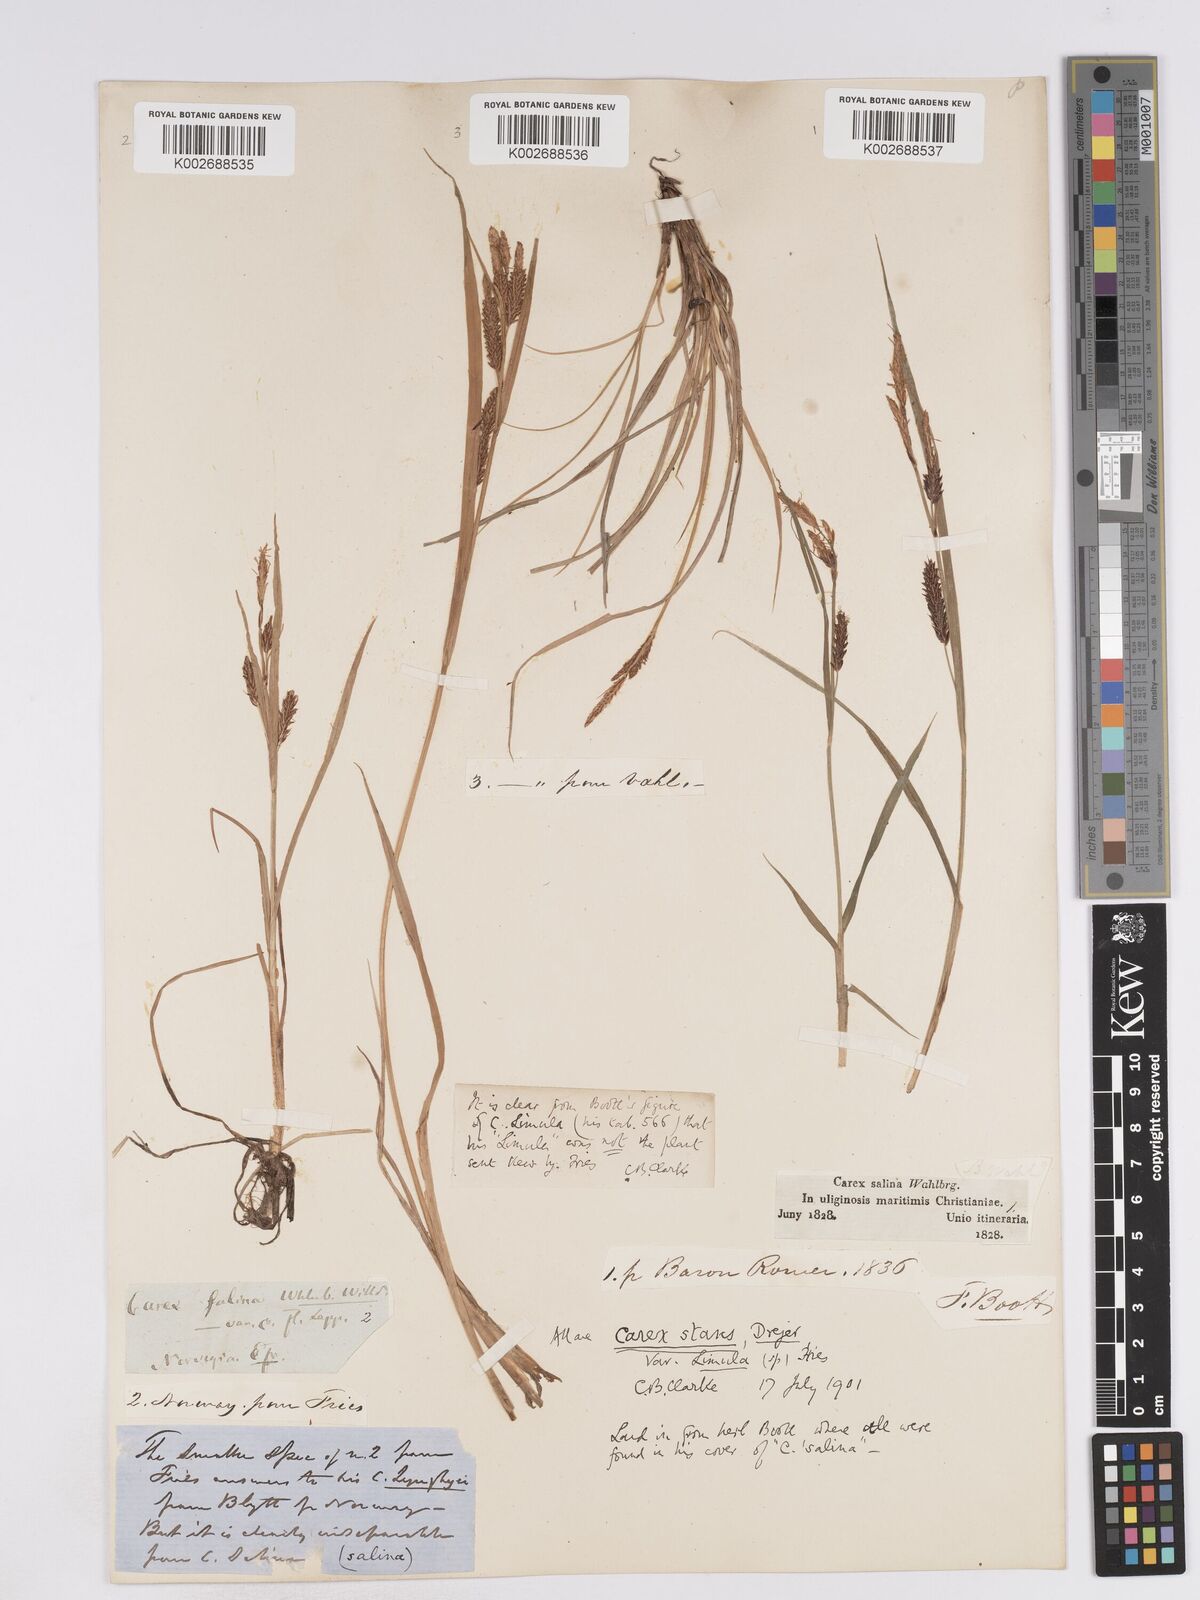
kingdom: Plantae
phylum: Tracheophyta
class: Liliopsida
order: Poales
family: Cyperaceae
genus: Carex
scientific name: Carex recta
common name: Estuarine sedge
